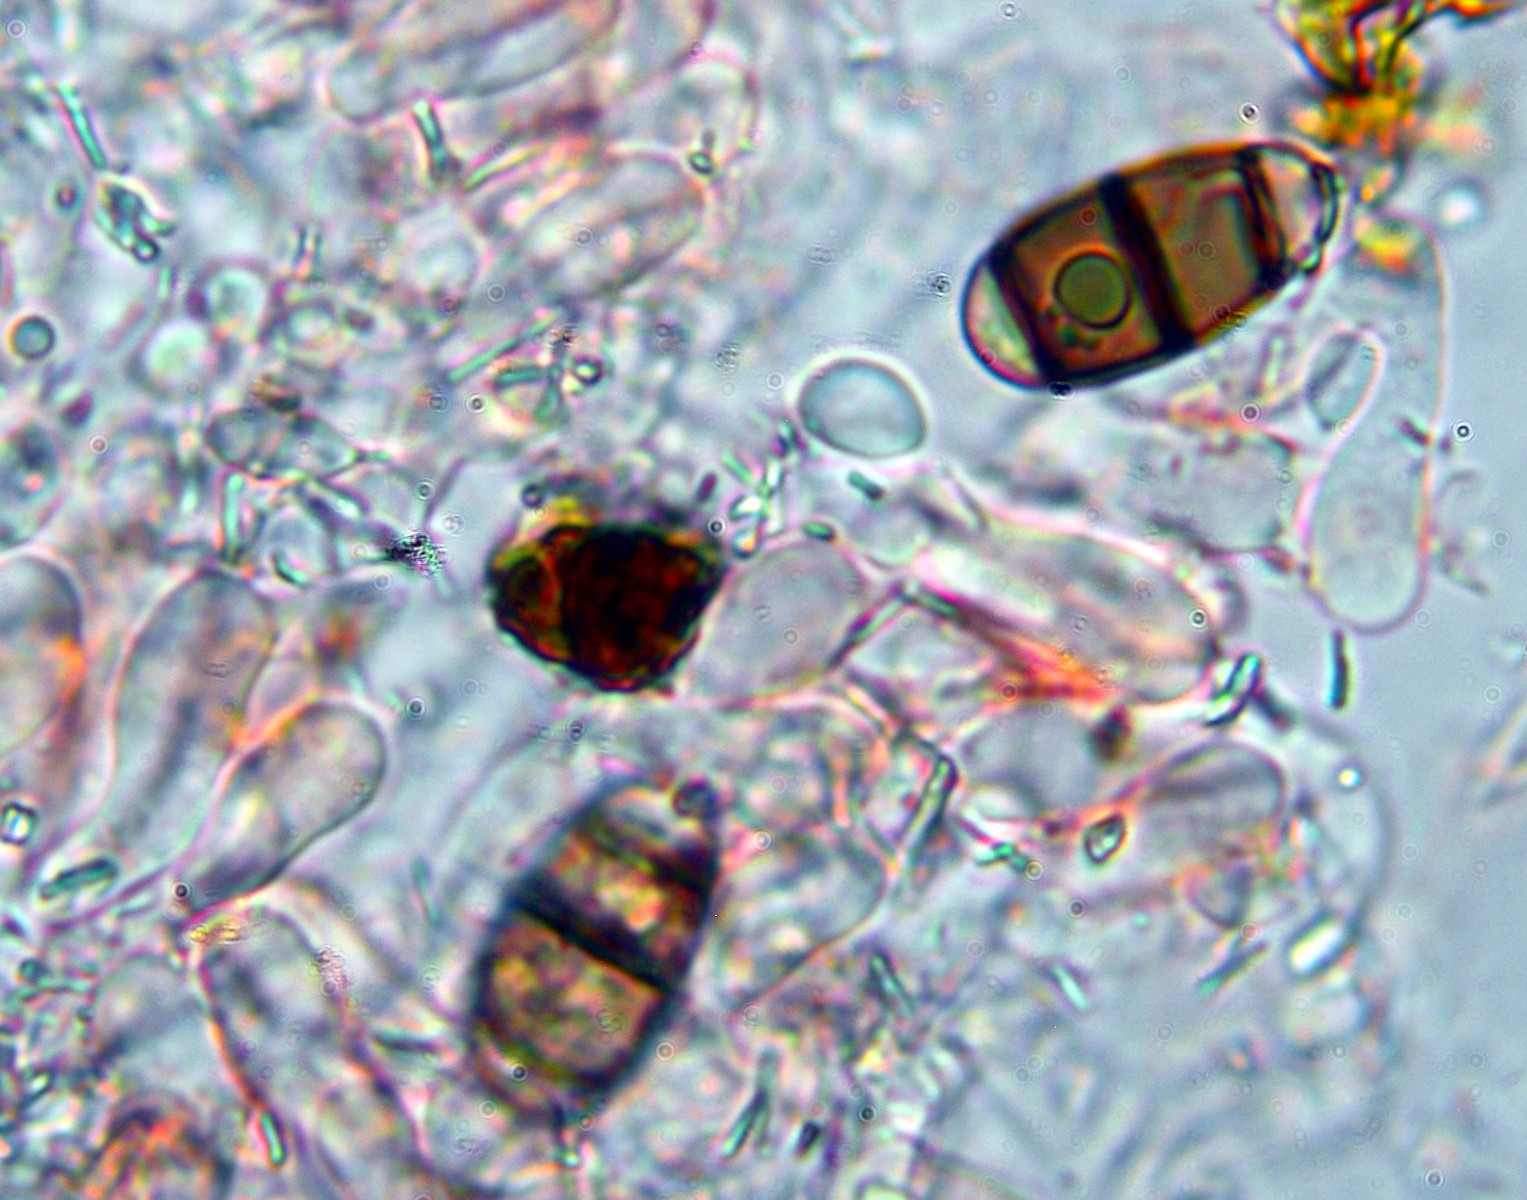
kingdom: Fungi
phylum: Ascomycota
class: Sordariomycetes
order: Coronophorales
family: Chaetosphaerellaceae
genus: Chaetosphaerella
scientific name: Chaetosphaerella phaeostroma
